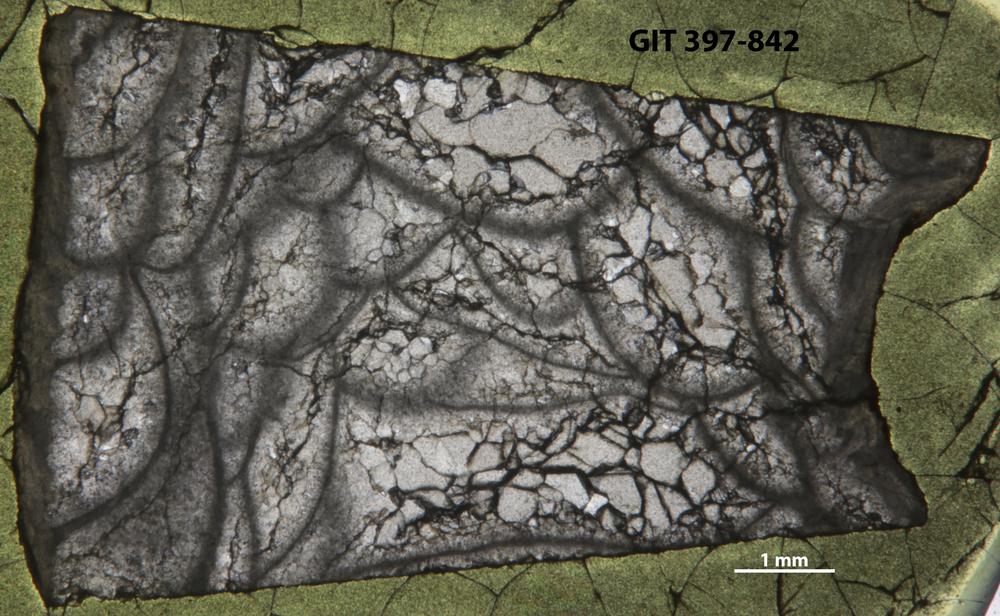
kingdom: Animalia
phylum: Cnidaria
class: Anthozoa
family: Cystiphyllidae
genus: Microplasma
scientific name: Microplasma
